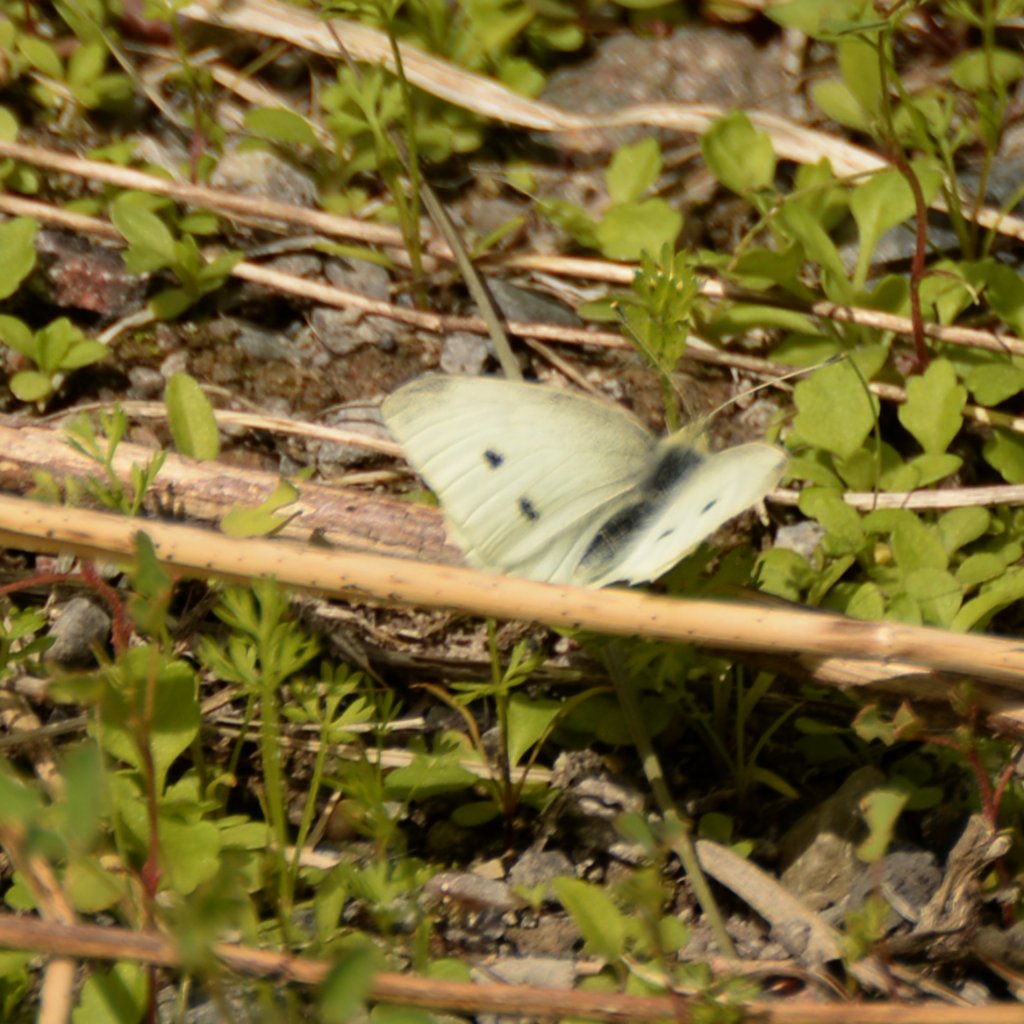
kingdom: Animalia
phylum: Arthropoda
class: Insecta
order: Lepidoptera
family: Pieridae
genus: Pieris
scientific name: Pieris rapae
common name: Cabbage White
